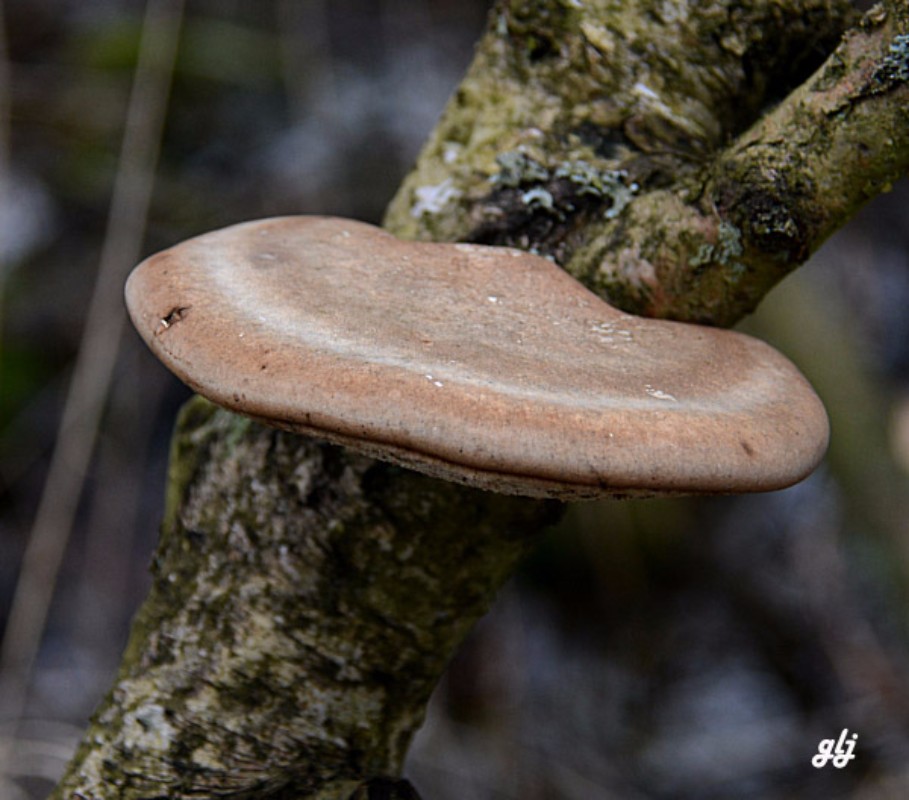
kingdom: Fungi
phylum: Basidiomycota
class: Agaricomycetes
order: Polyporales
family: Fomitopsidaceae
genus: Fomitopsis
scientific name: Fomitopsis betulina
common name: birkeporesvamp
